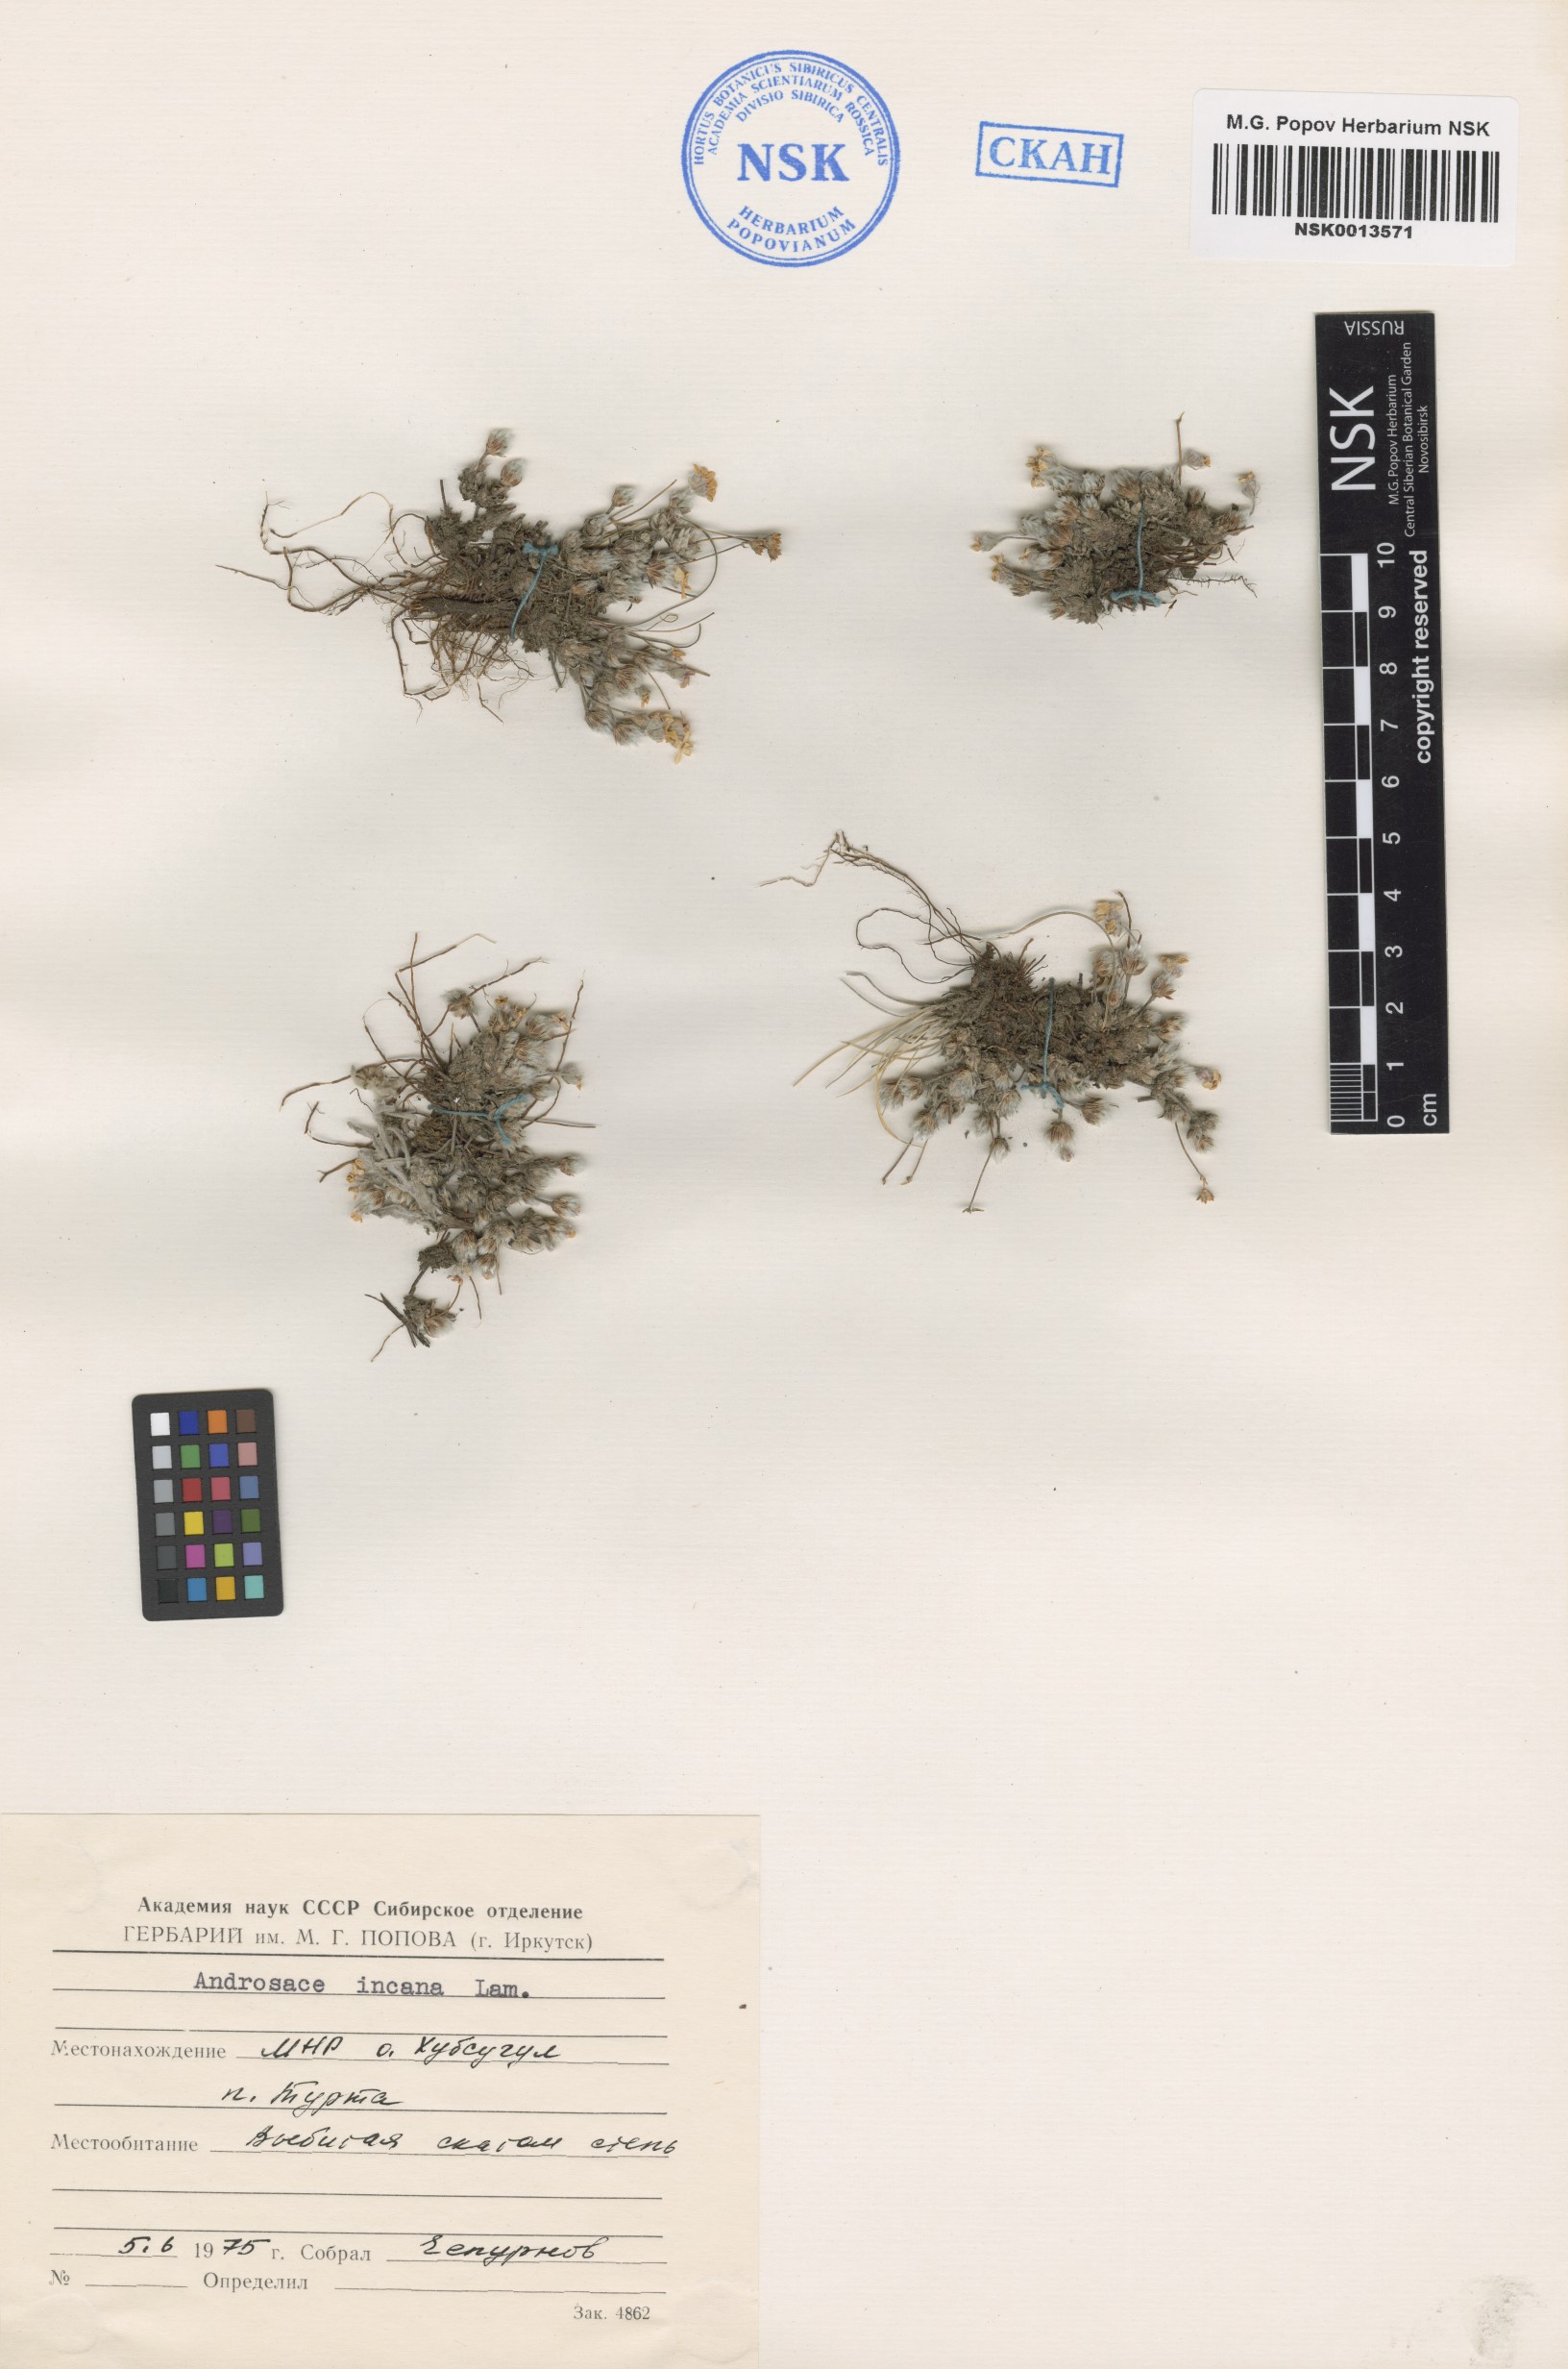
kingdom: Plantae
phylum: Tracheophyta
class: Magnoliopsida
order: Ericales
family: Primulaceae
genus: Androsace
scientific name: Androsace incana
